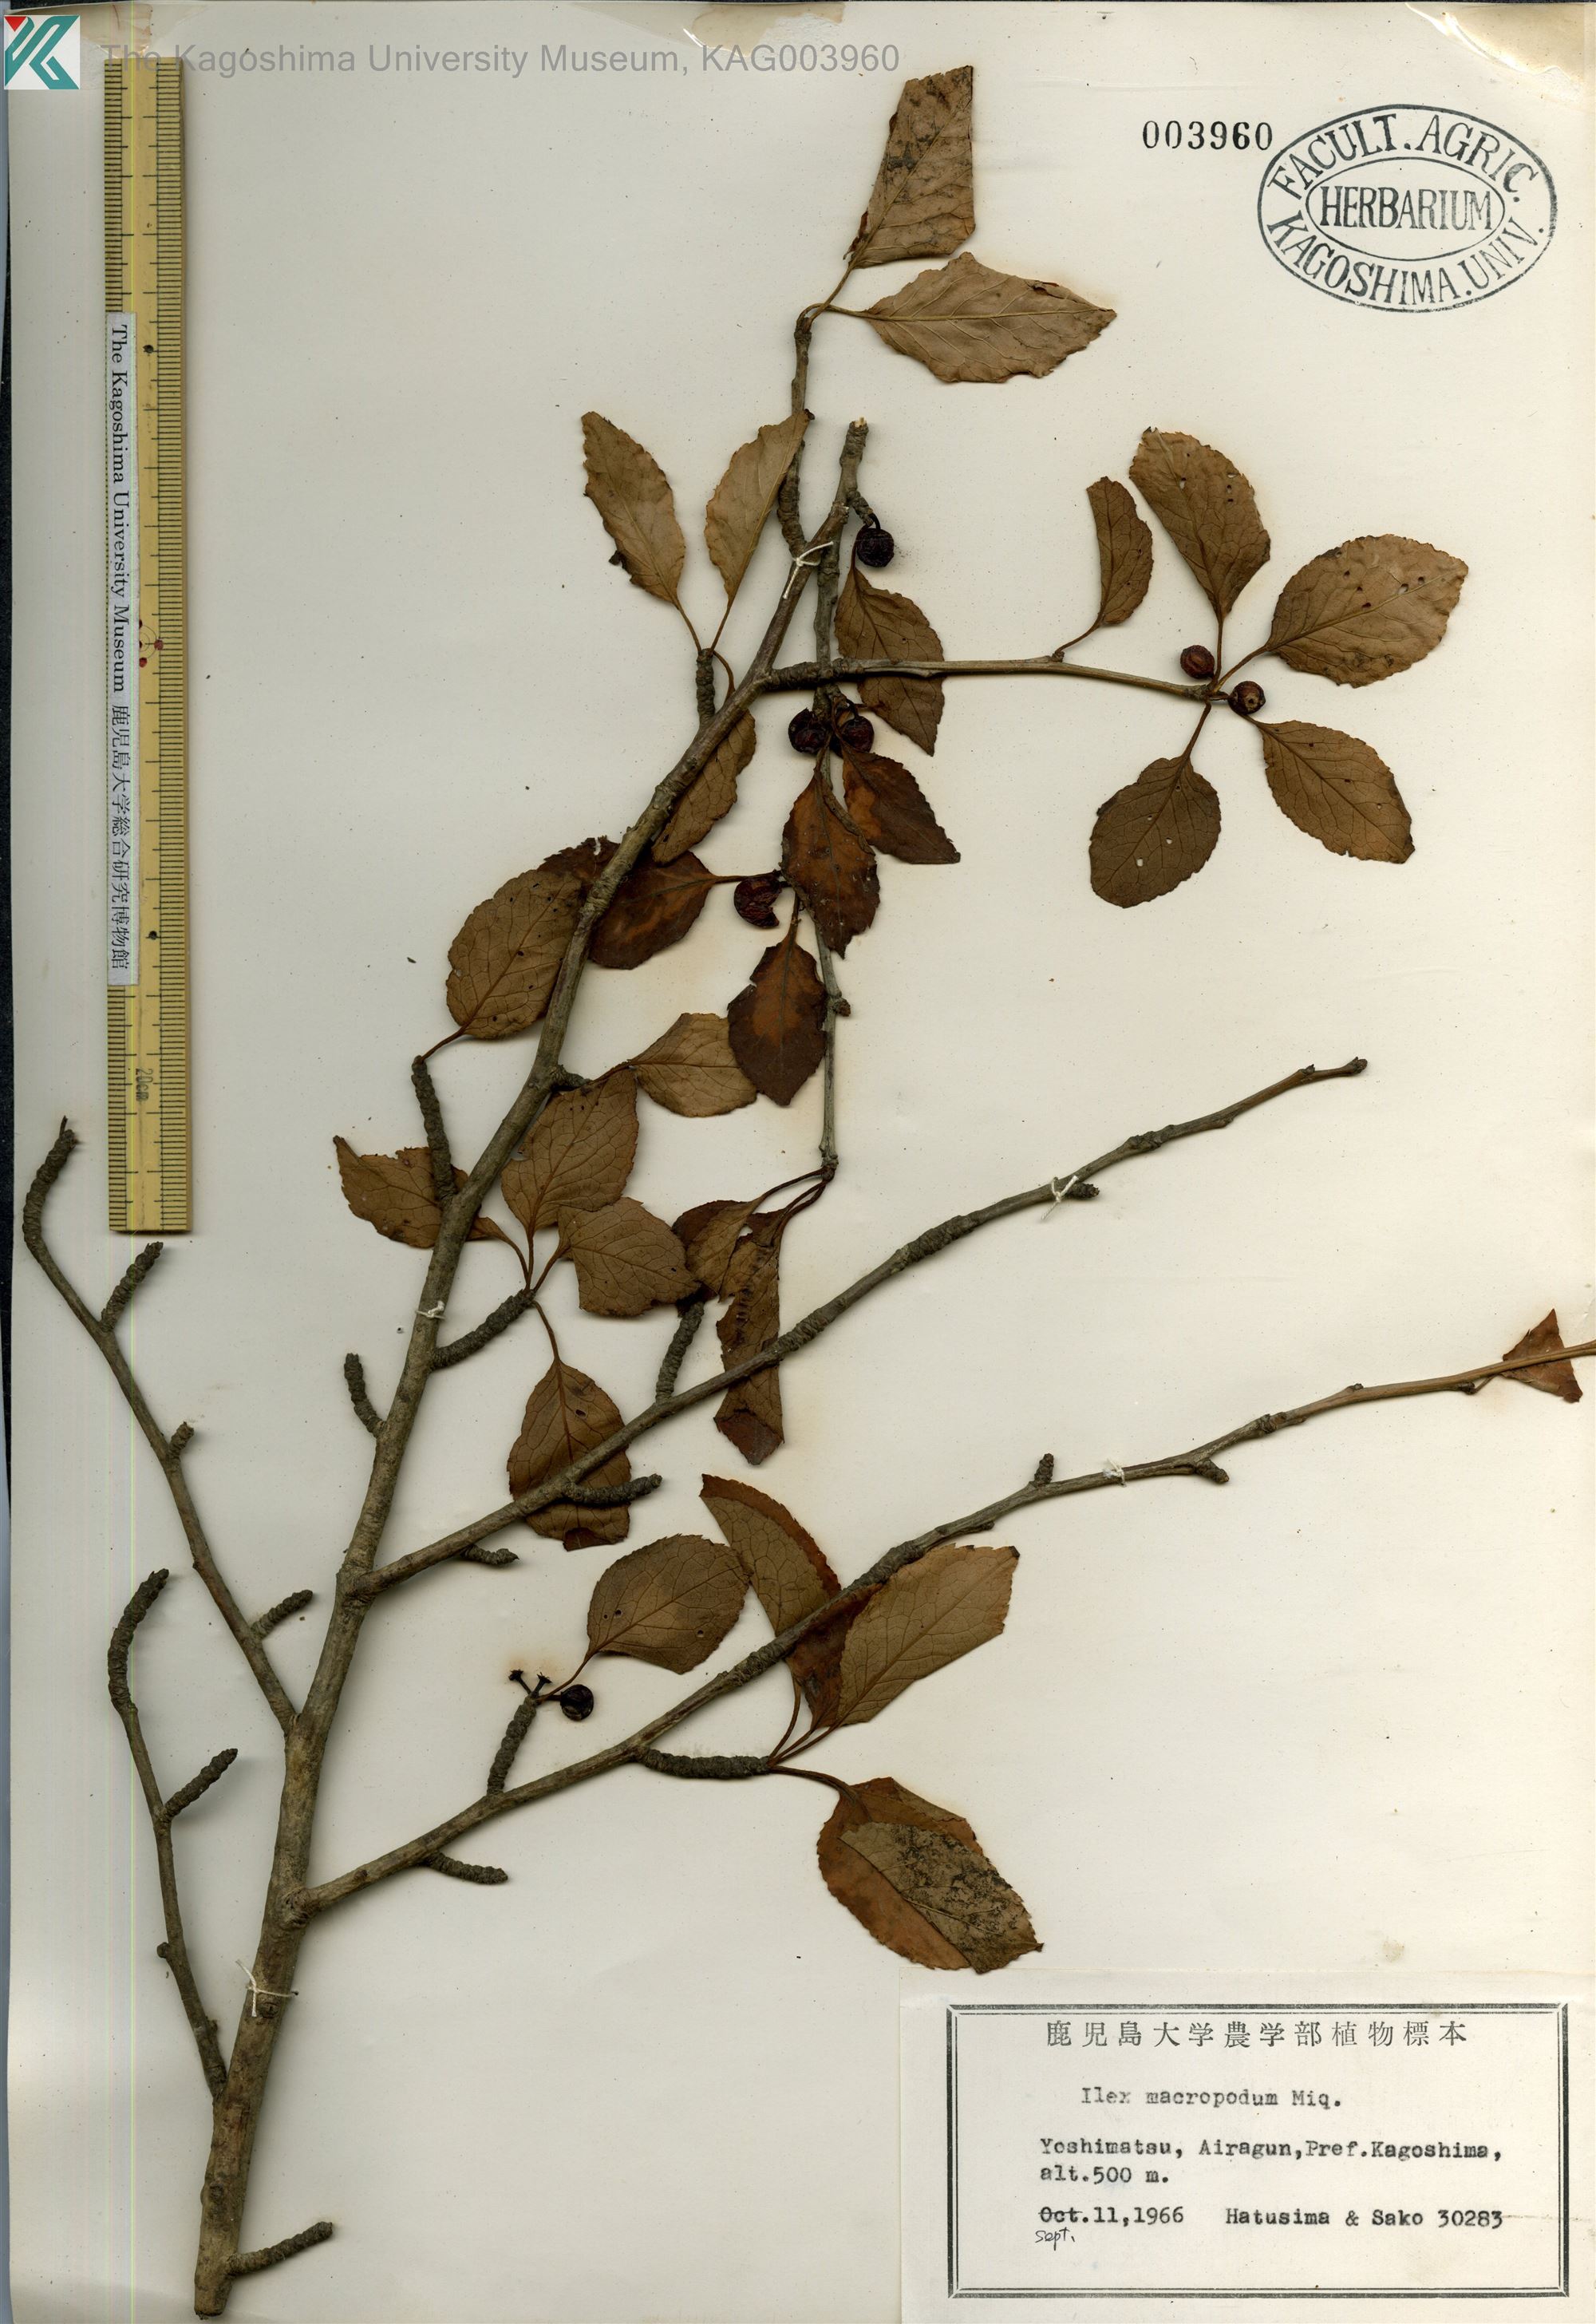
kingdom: Plantae
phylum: Tracheophyta
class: Magnoliopsida
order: Aquifoliales
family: Aquifoliaceae
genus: Ilex
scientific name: Ilex macropoda
